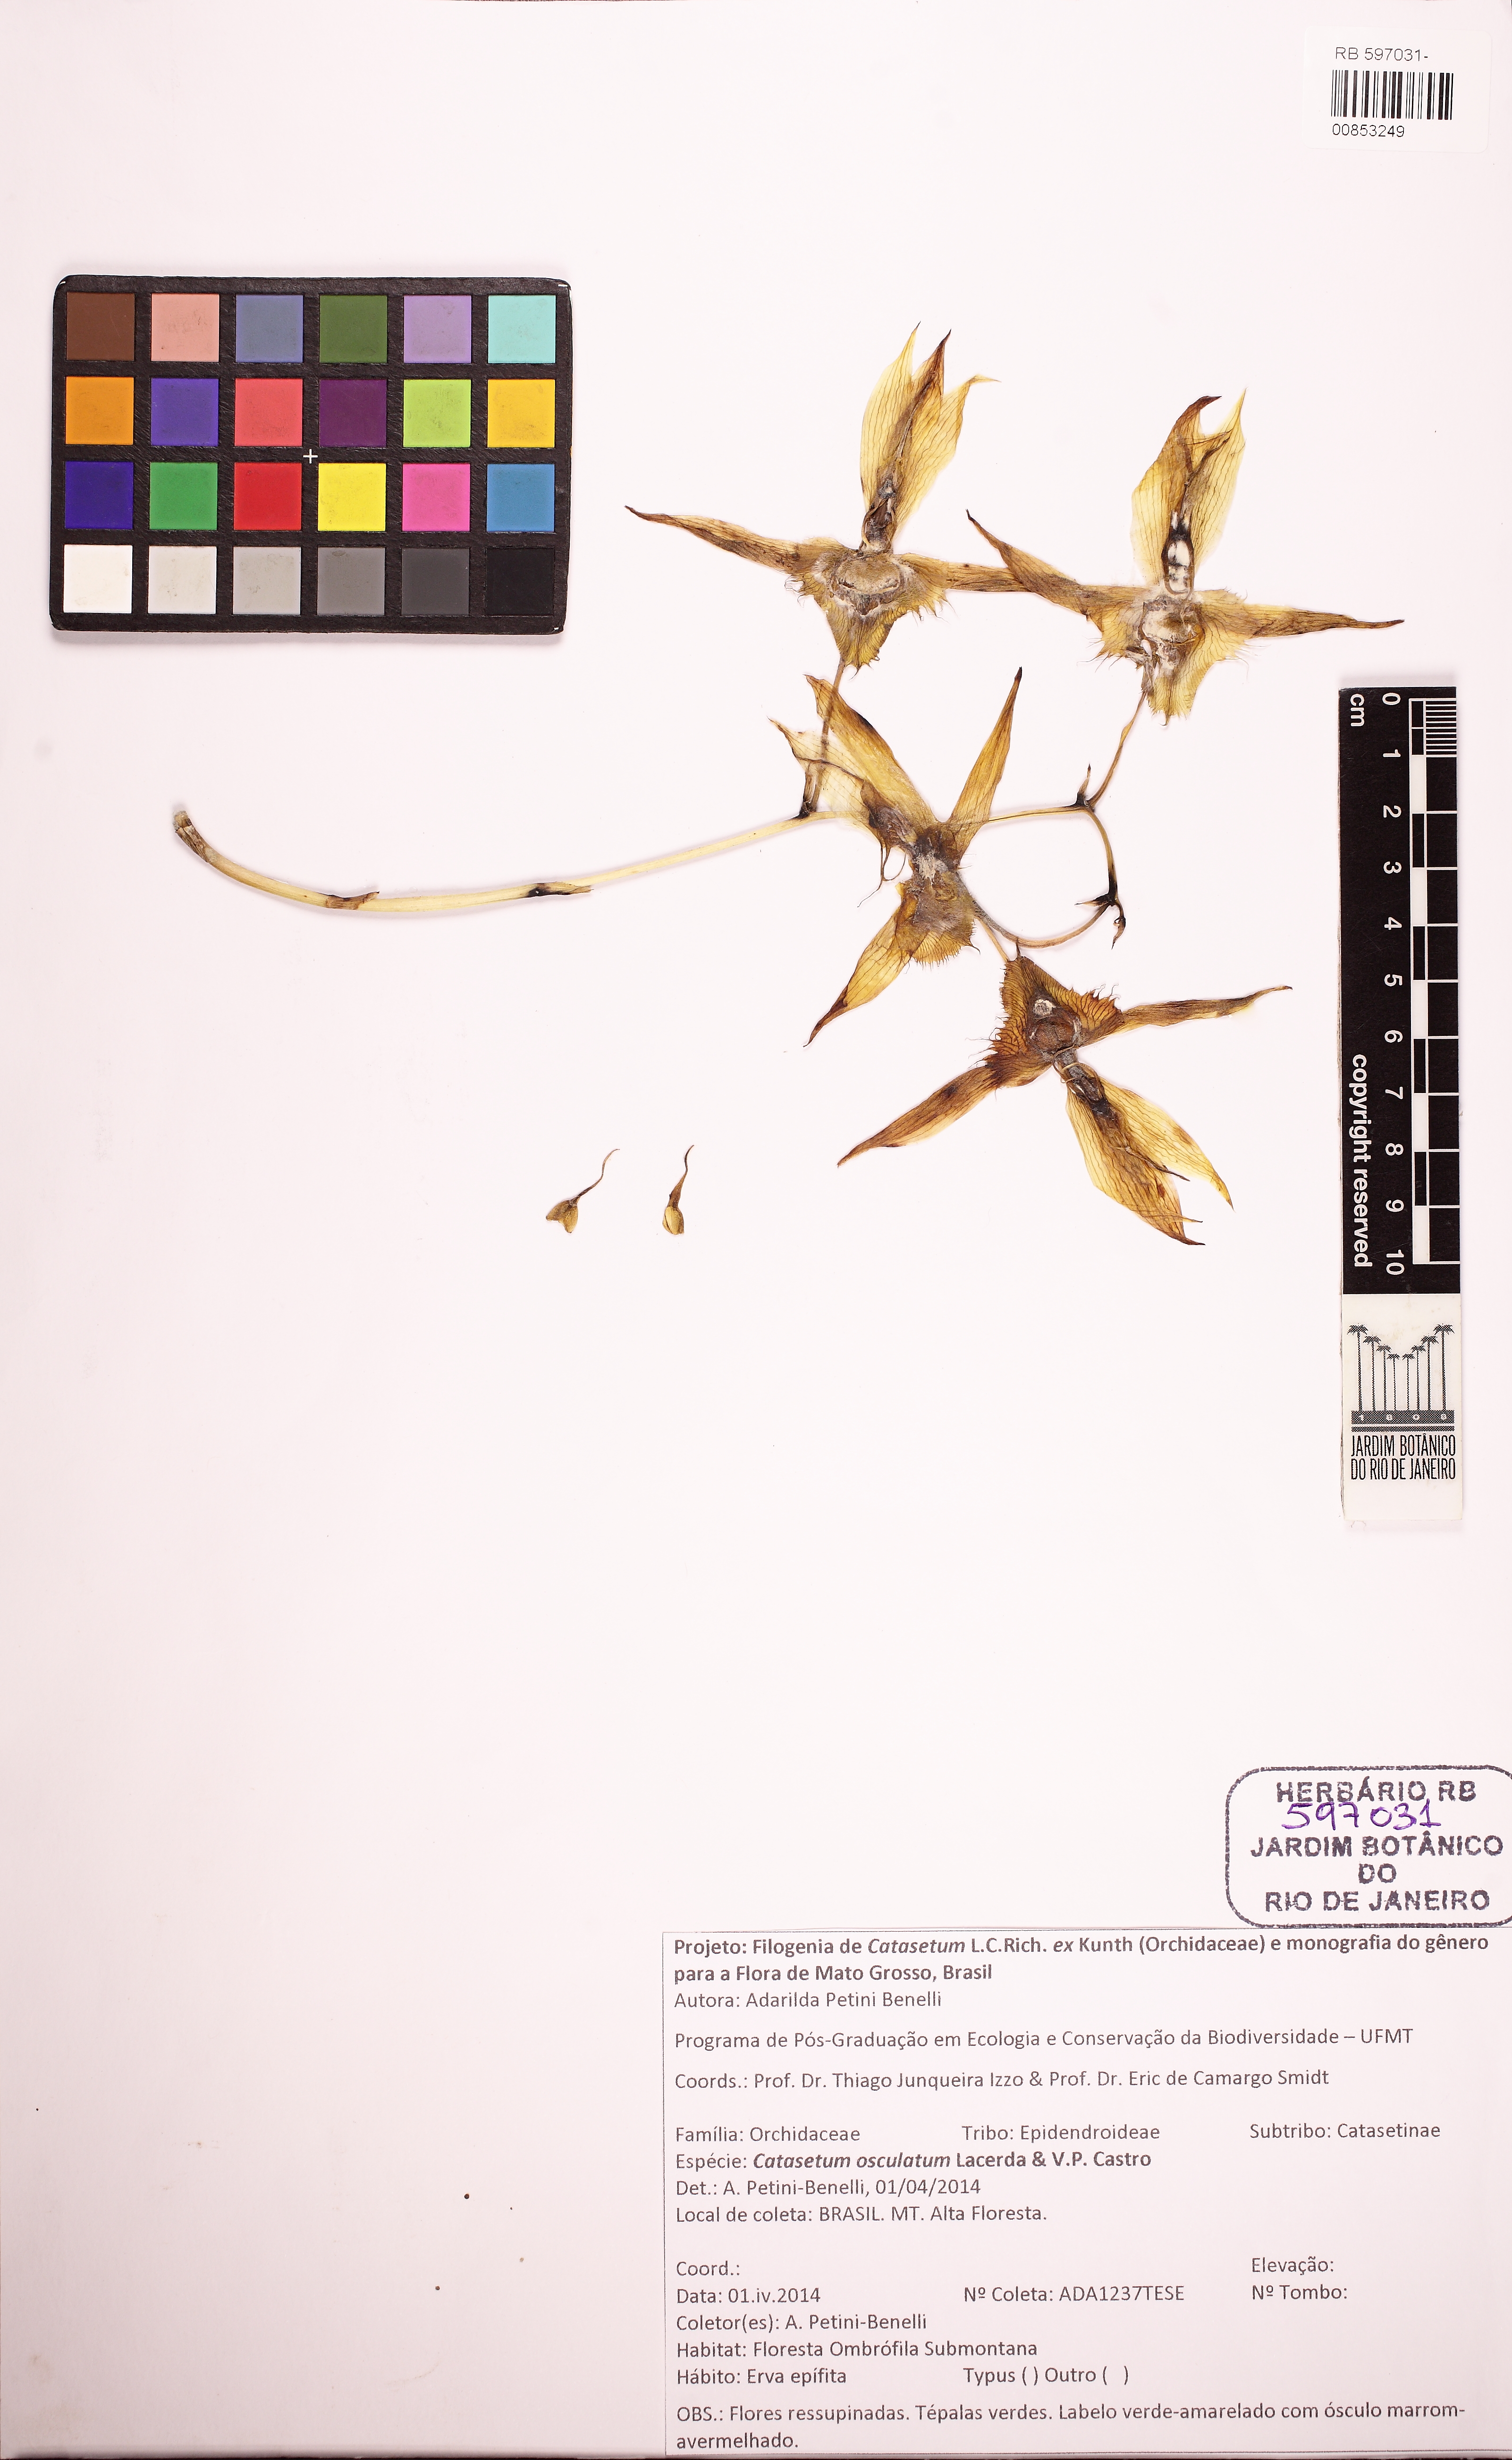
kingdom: Plantae
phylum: Tracheophyta
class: Liliopsida
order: Asparagales
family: Orchidaceae
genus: Catasetum
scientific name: Catasetum osculatum
